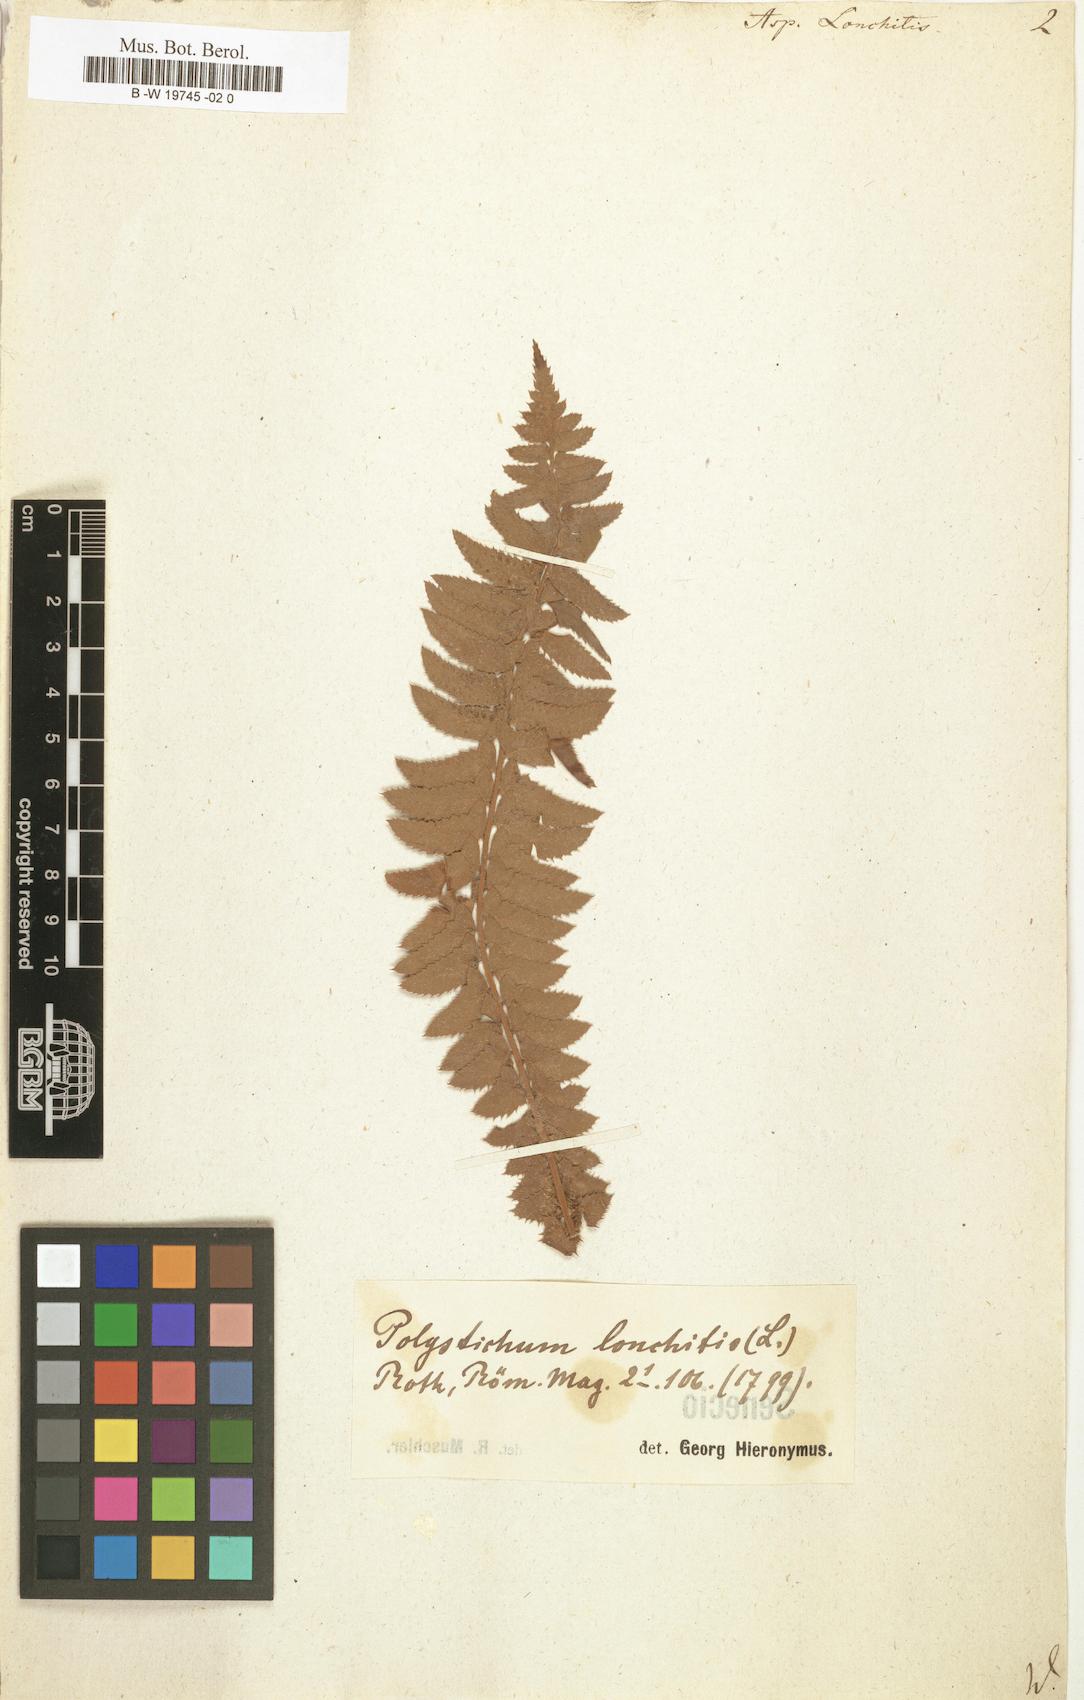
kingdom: Plantae
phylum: Tracheophyta
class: Polypodiopsida
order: Polypodiales
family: Dryopteridaceae
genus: Polystichum
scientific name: Polystichum lonchitis
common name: Holly fern
